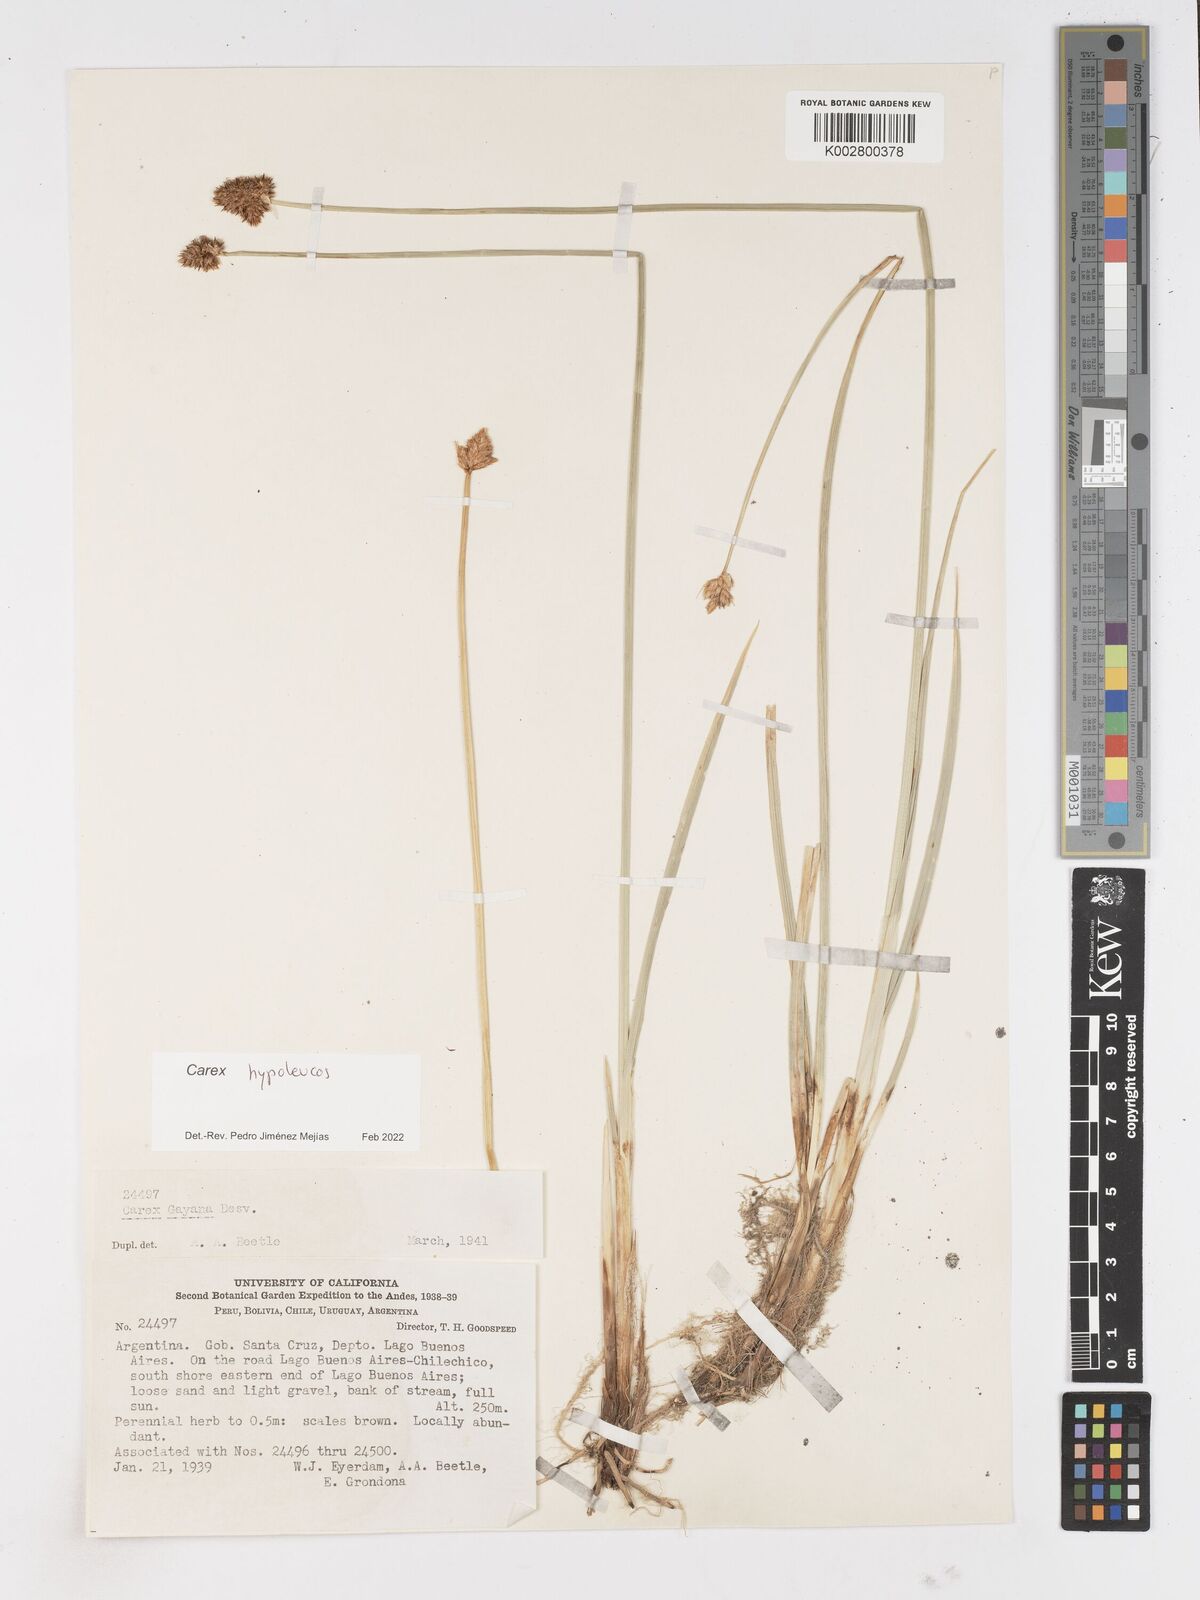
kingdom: Plantae
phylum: Tracheophyta
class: Liliopsida
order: Poales
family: Cyperaceae
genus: Carex
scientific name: Carex macrorrhiza
